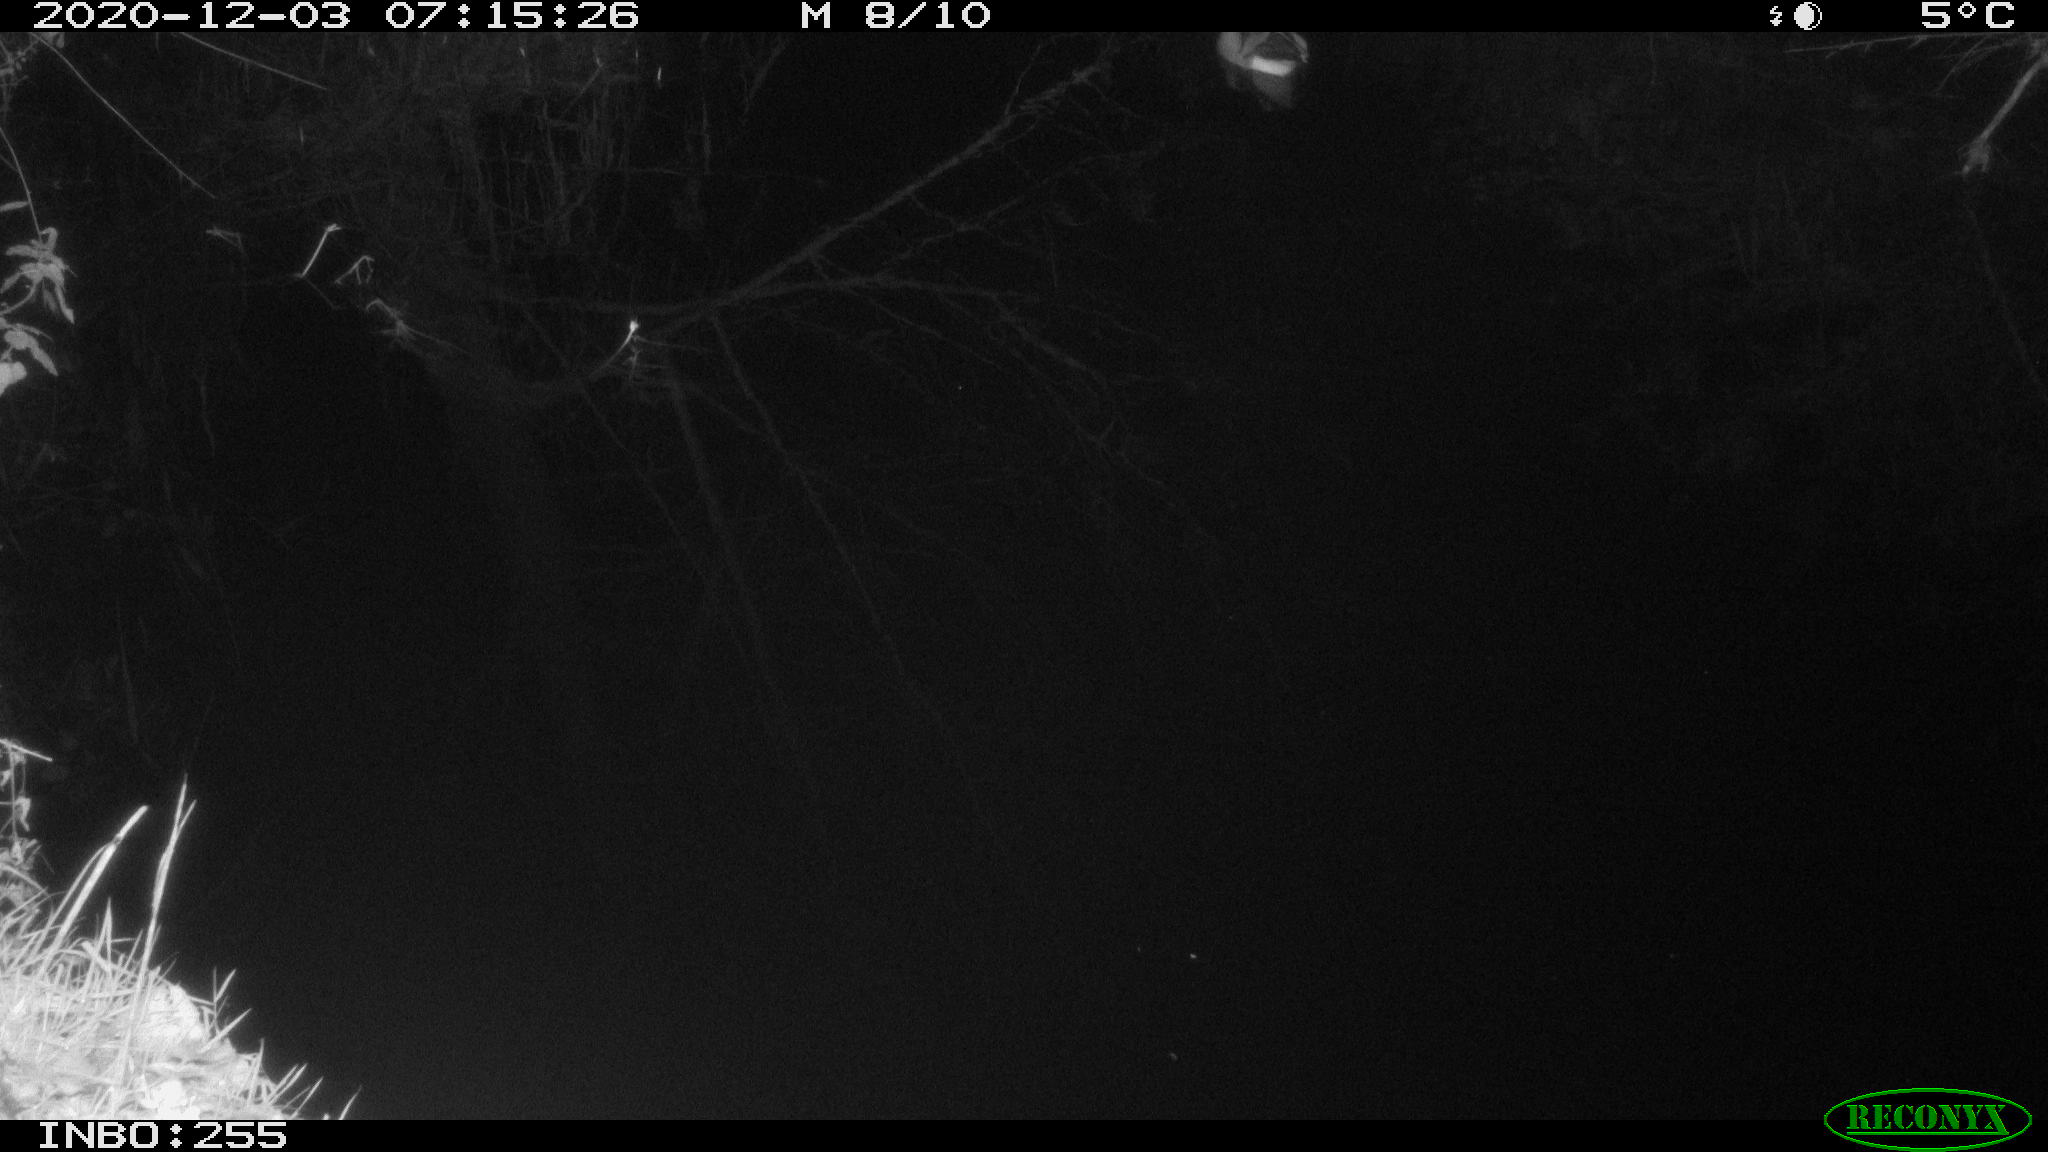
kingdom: Animalia
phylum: Chordata
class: Aves
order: Anseriformes
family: Anatidae
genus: Aix
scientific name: Aix galericulata
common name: Mandarin duck
